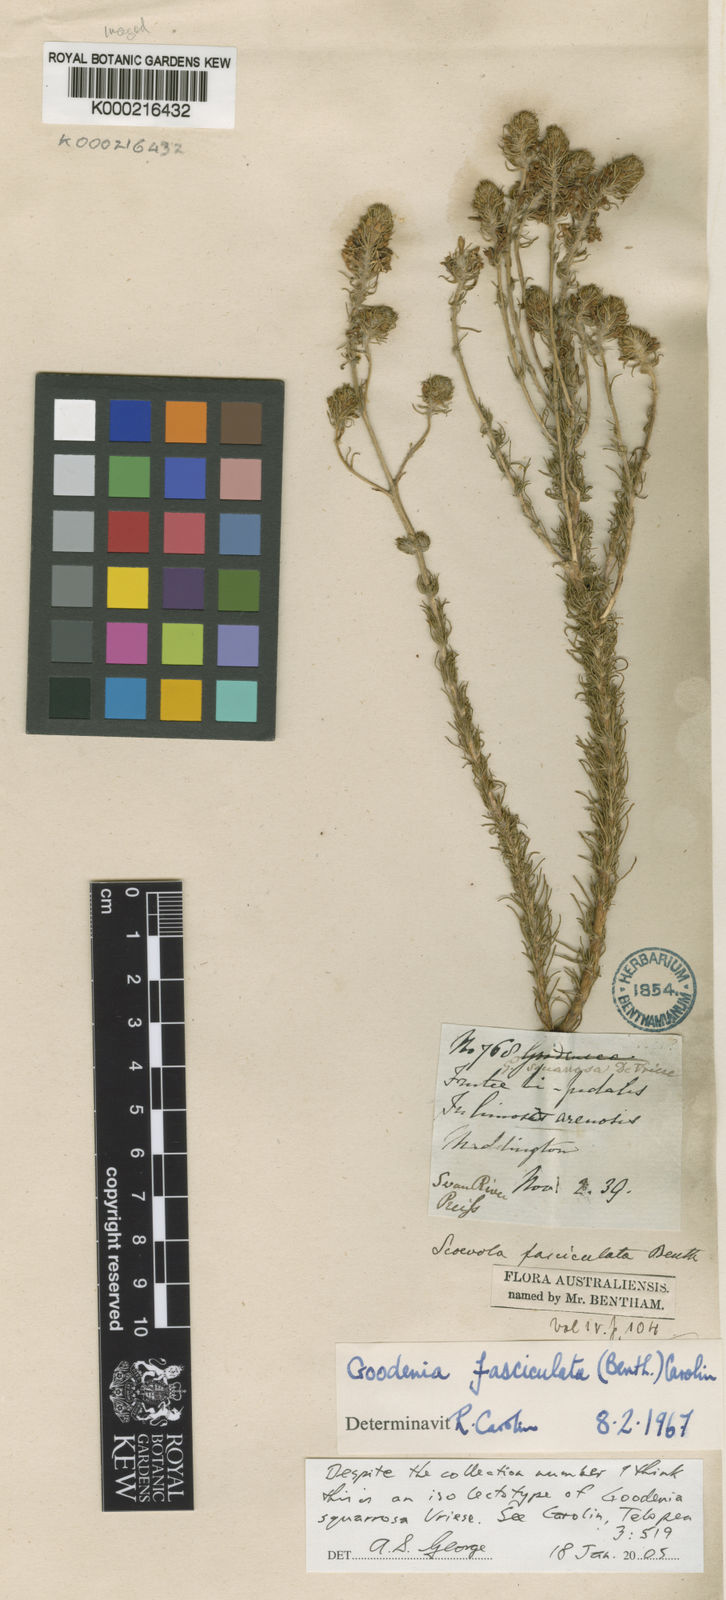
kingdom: Plantae
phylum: Tracheophyta
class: Magnoliopsida
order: Asterales
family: Goodeniaceae
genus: Goodenia
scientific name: Goodenia fasciculata
